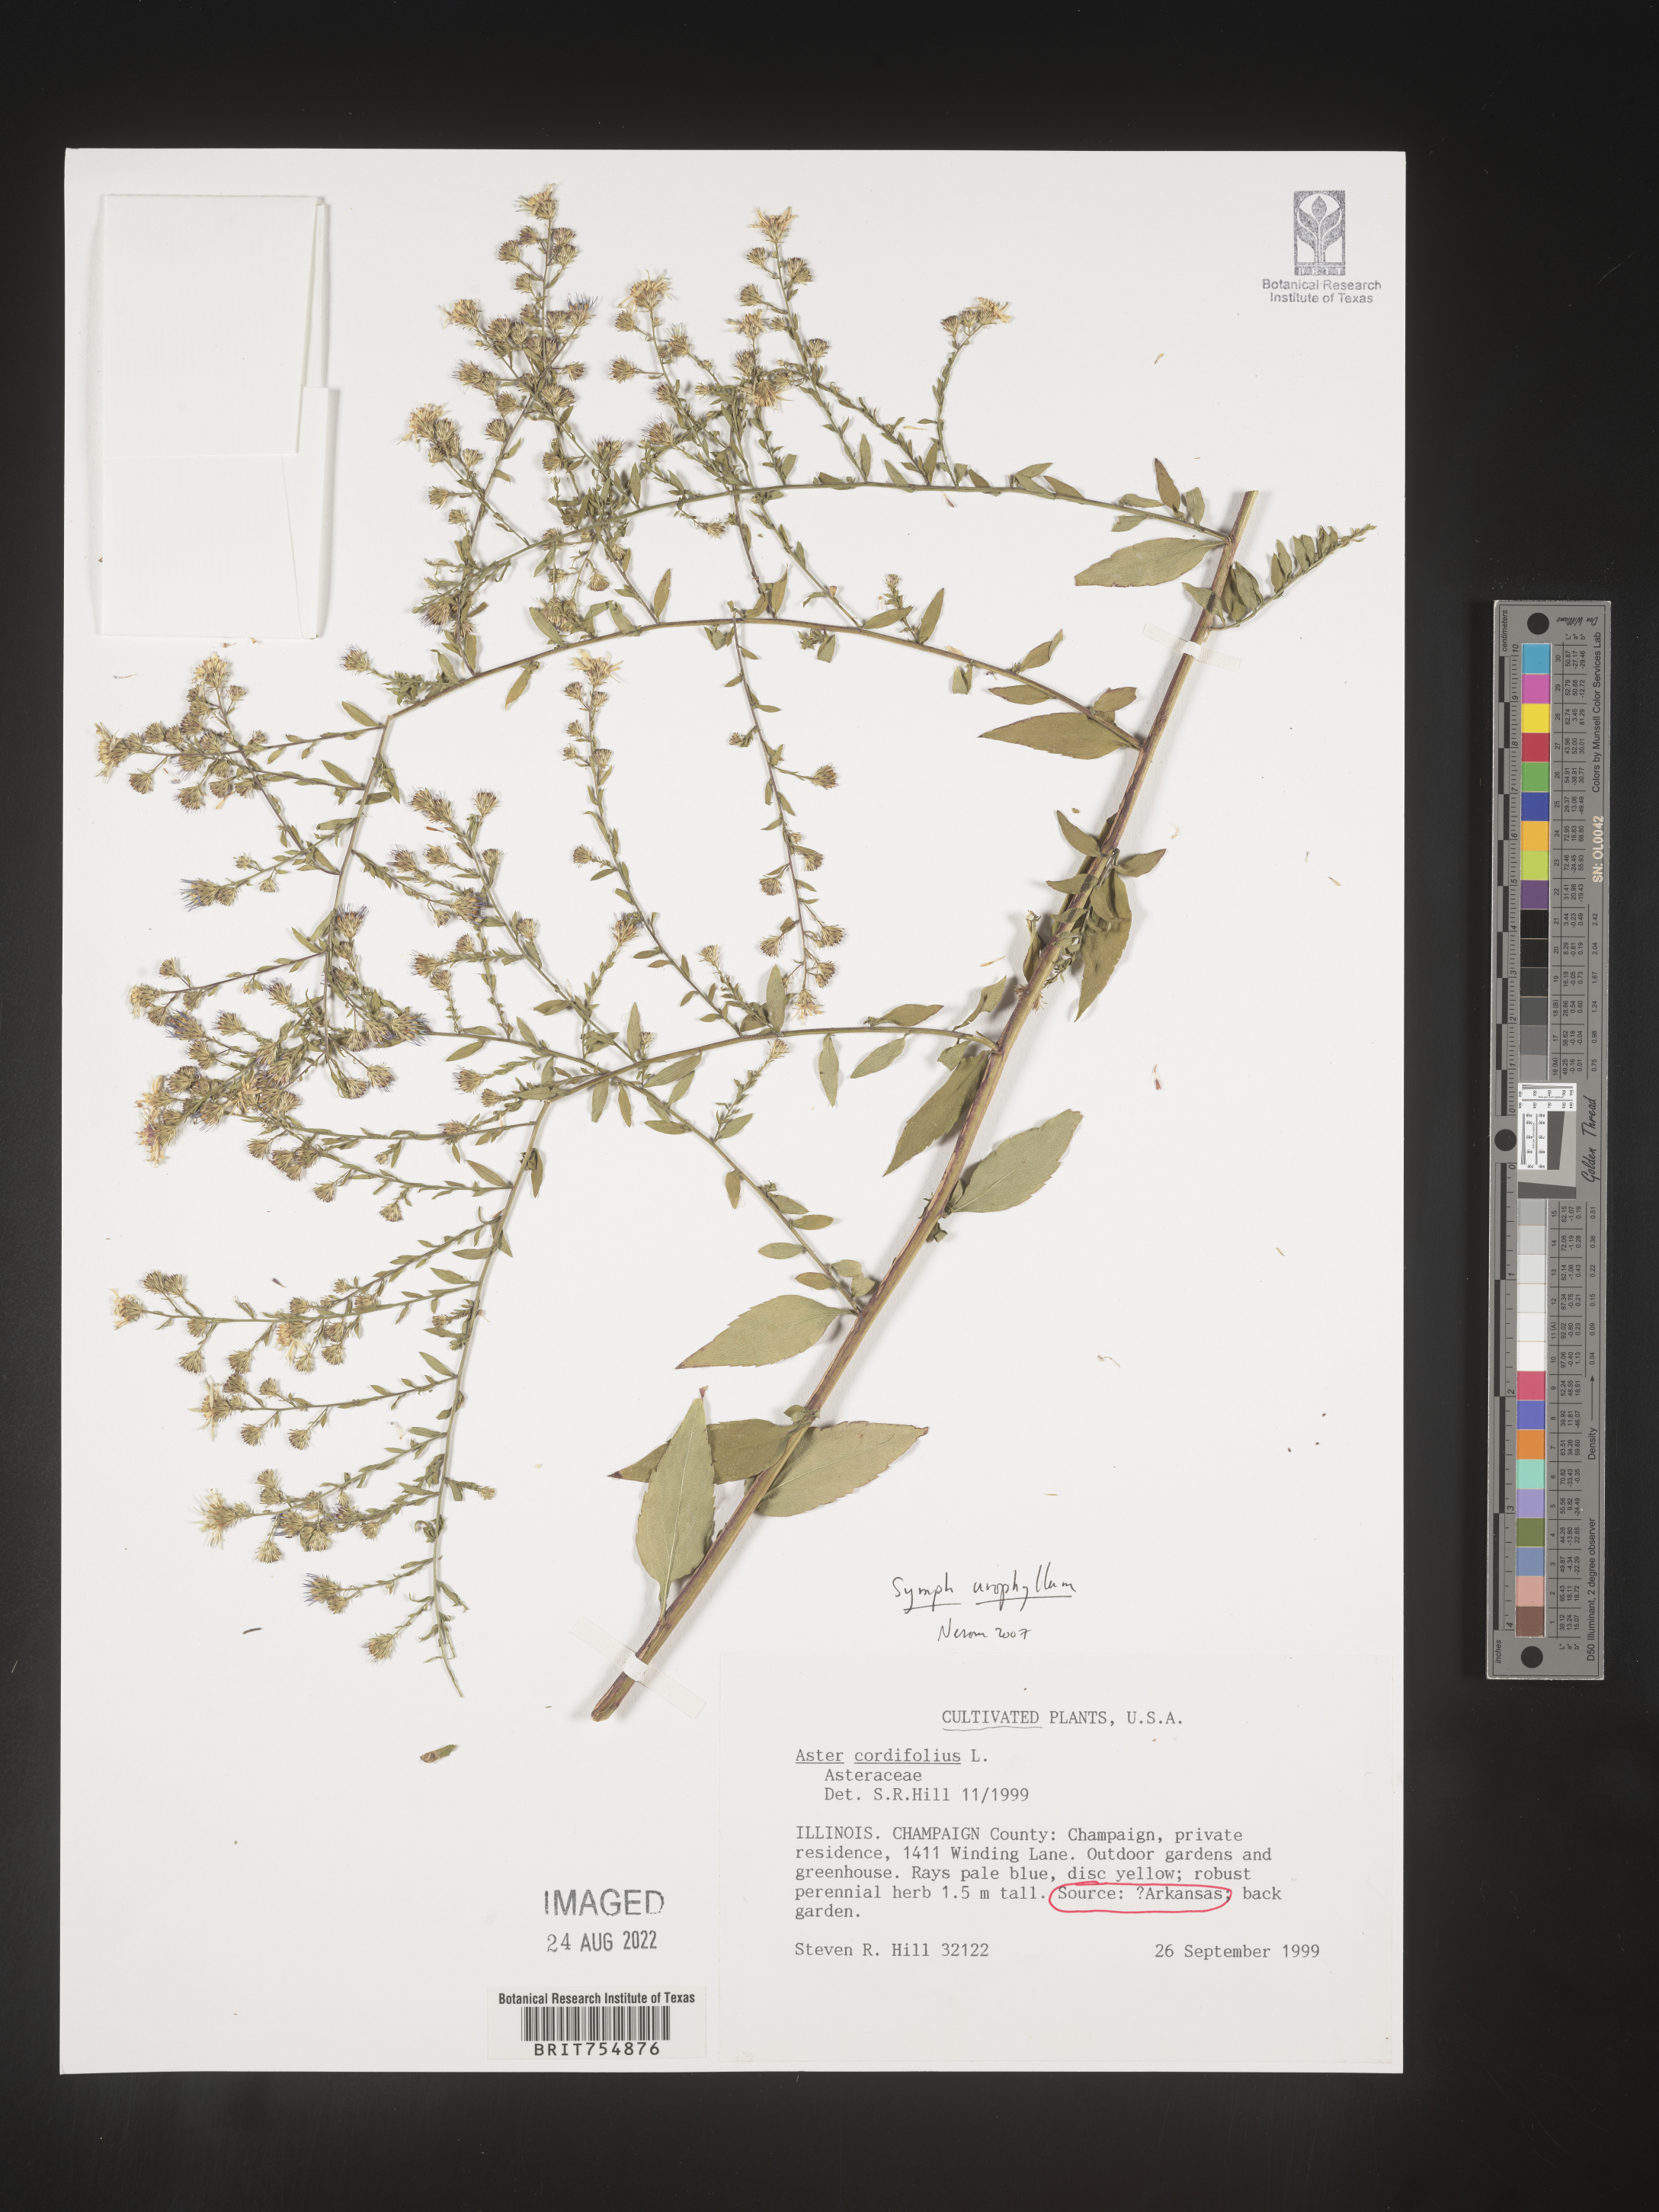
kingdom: Plantae
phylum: Tracheophyta
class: Magnoliopsida
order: Asterales
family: Asteraceae
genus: Symphyotrichum
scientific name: Symphyotrichum urophyllum
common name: Arrow-leaved aster
